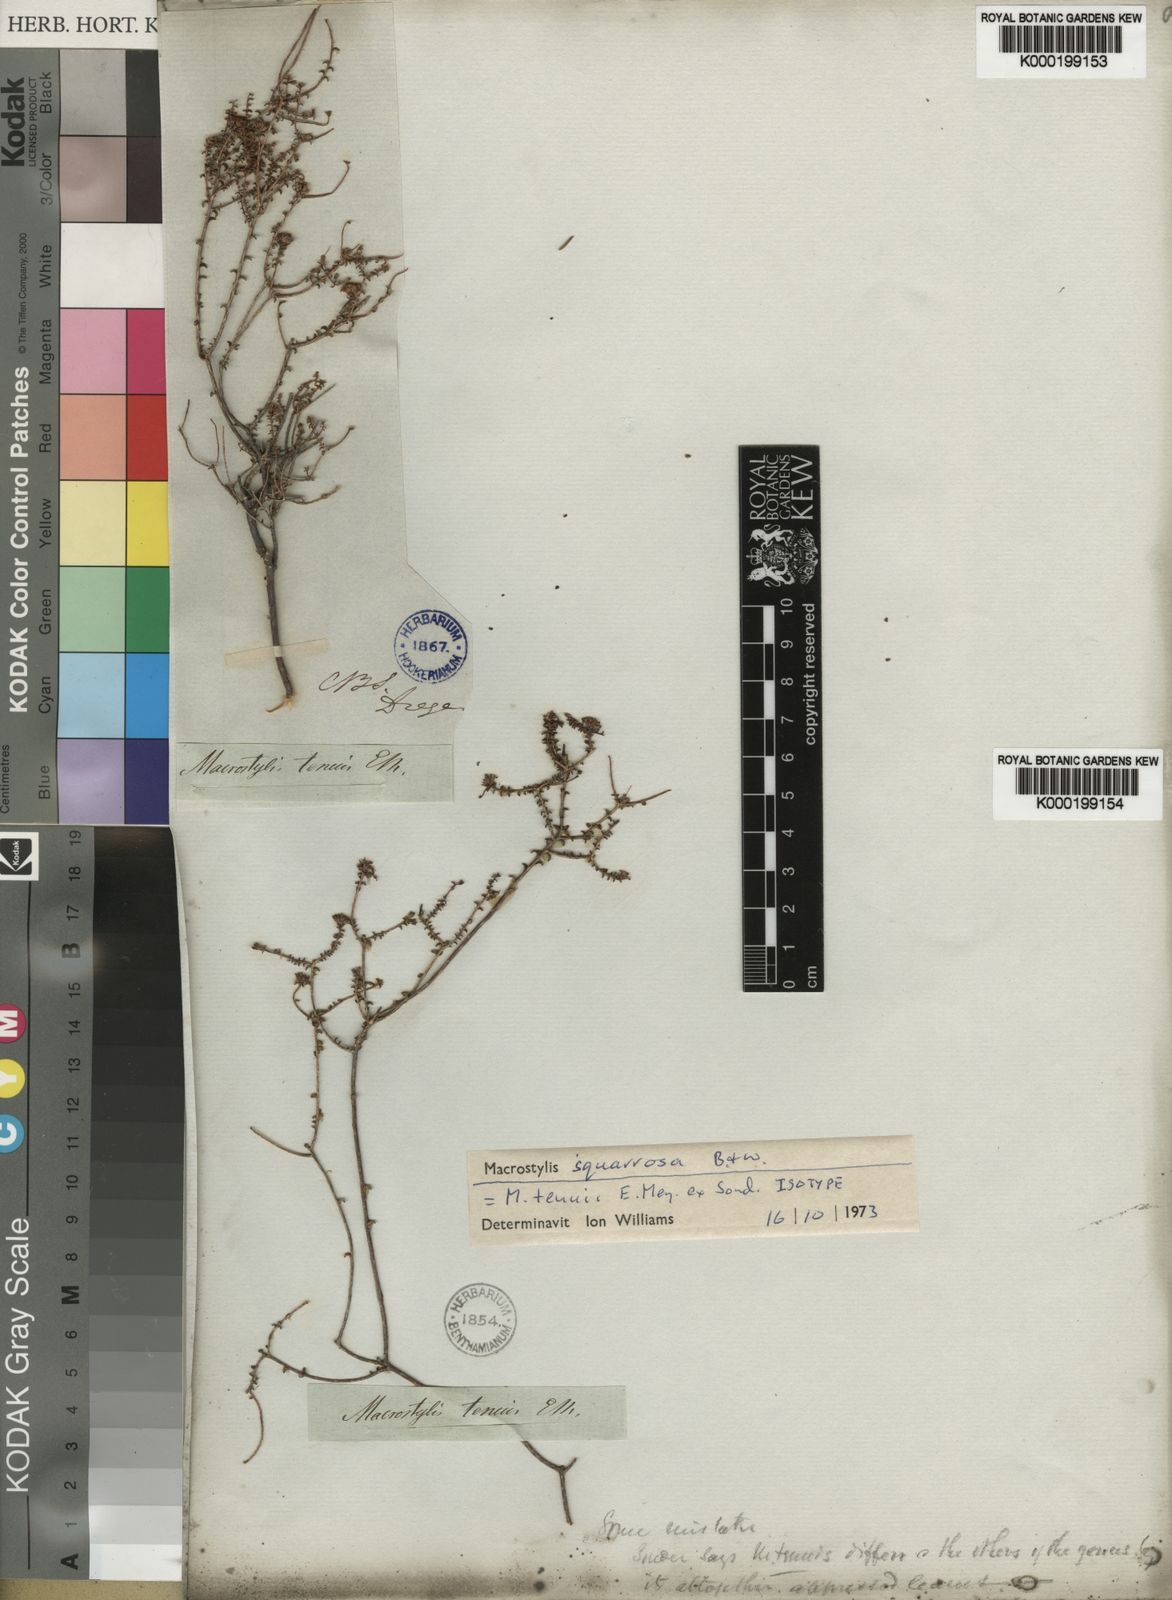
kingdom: Plantae
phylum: Tracheophyta
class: Magnoliopsida
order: Sapindales
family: Rutaceae
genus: Macrostylis
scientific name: Macrostylis squarrosa
